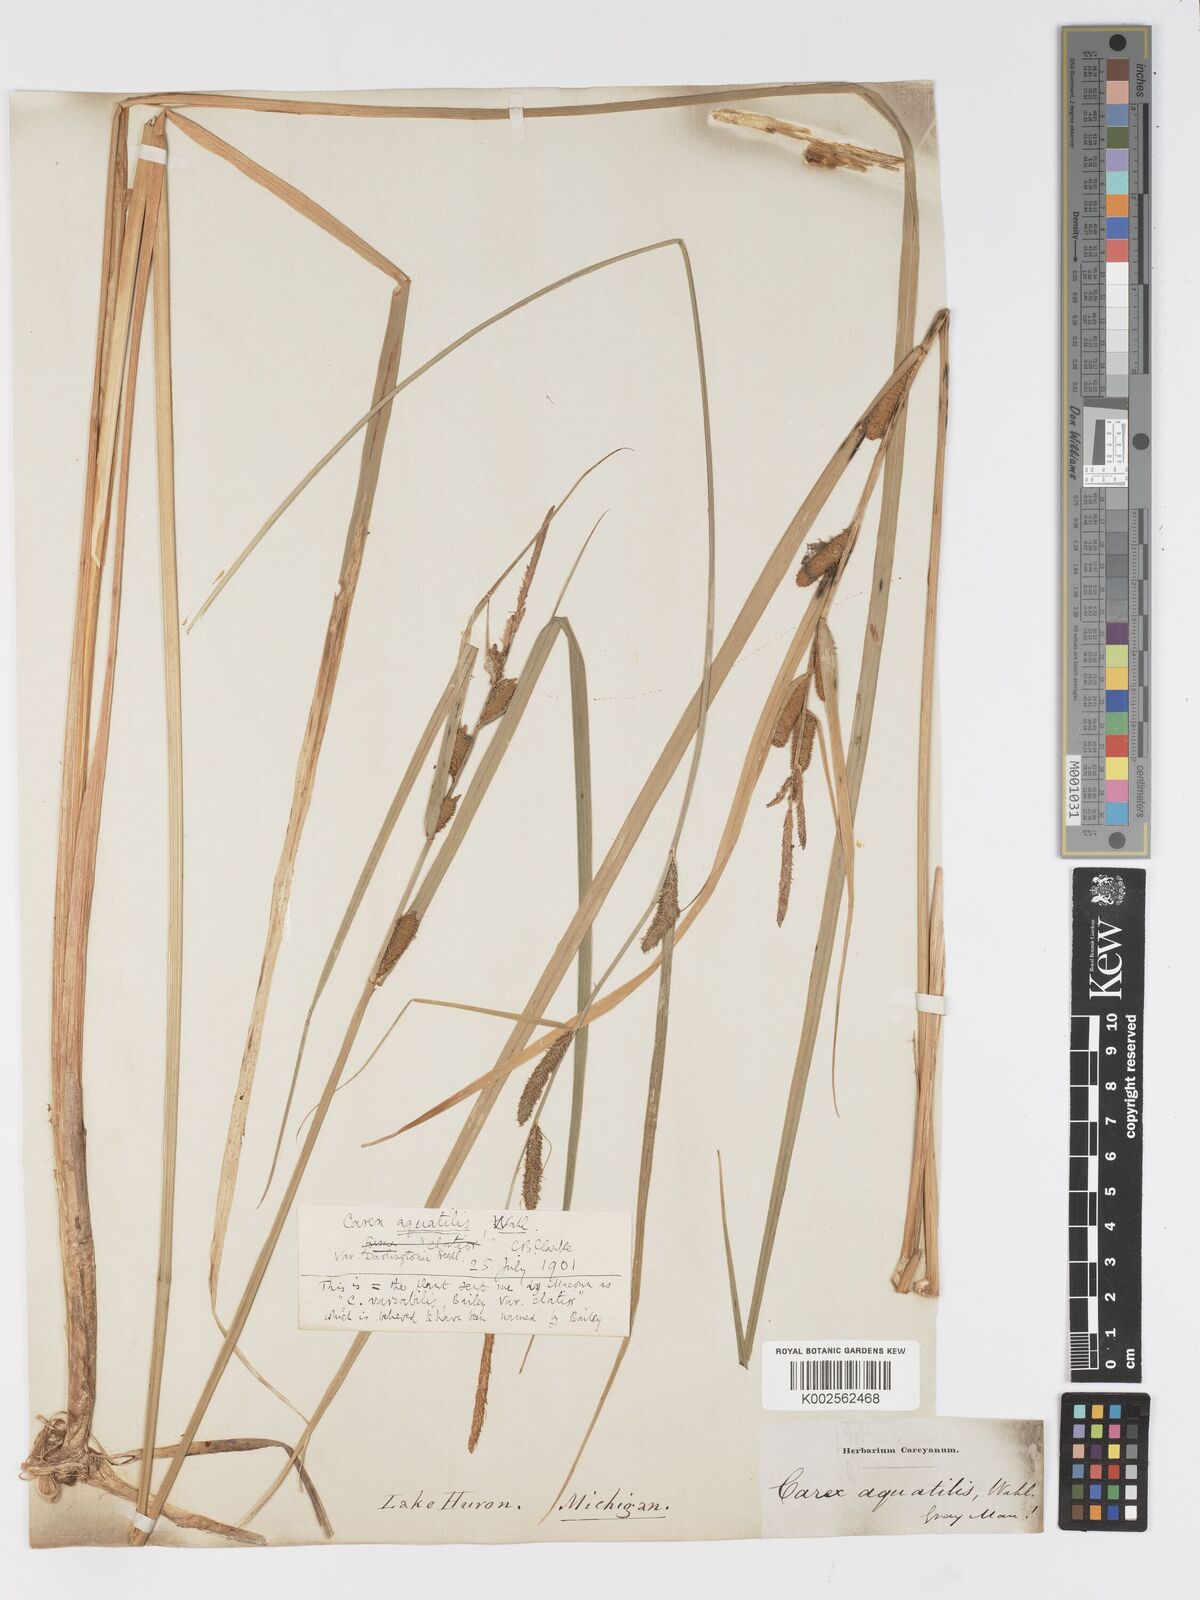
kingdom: Plantae
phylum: Tracheophyta
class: Liliopsida
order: Poales
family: Cyperaceae
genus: Carex
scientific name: Carex
